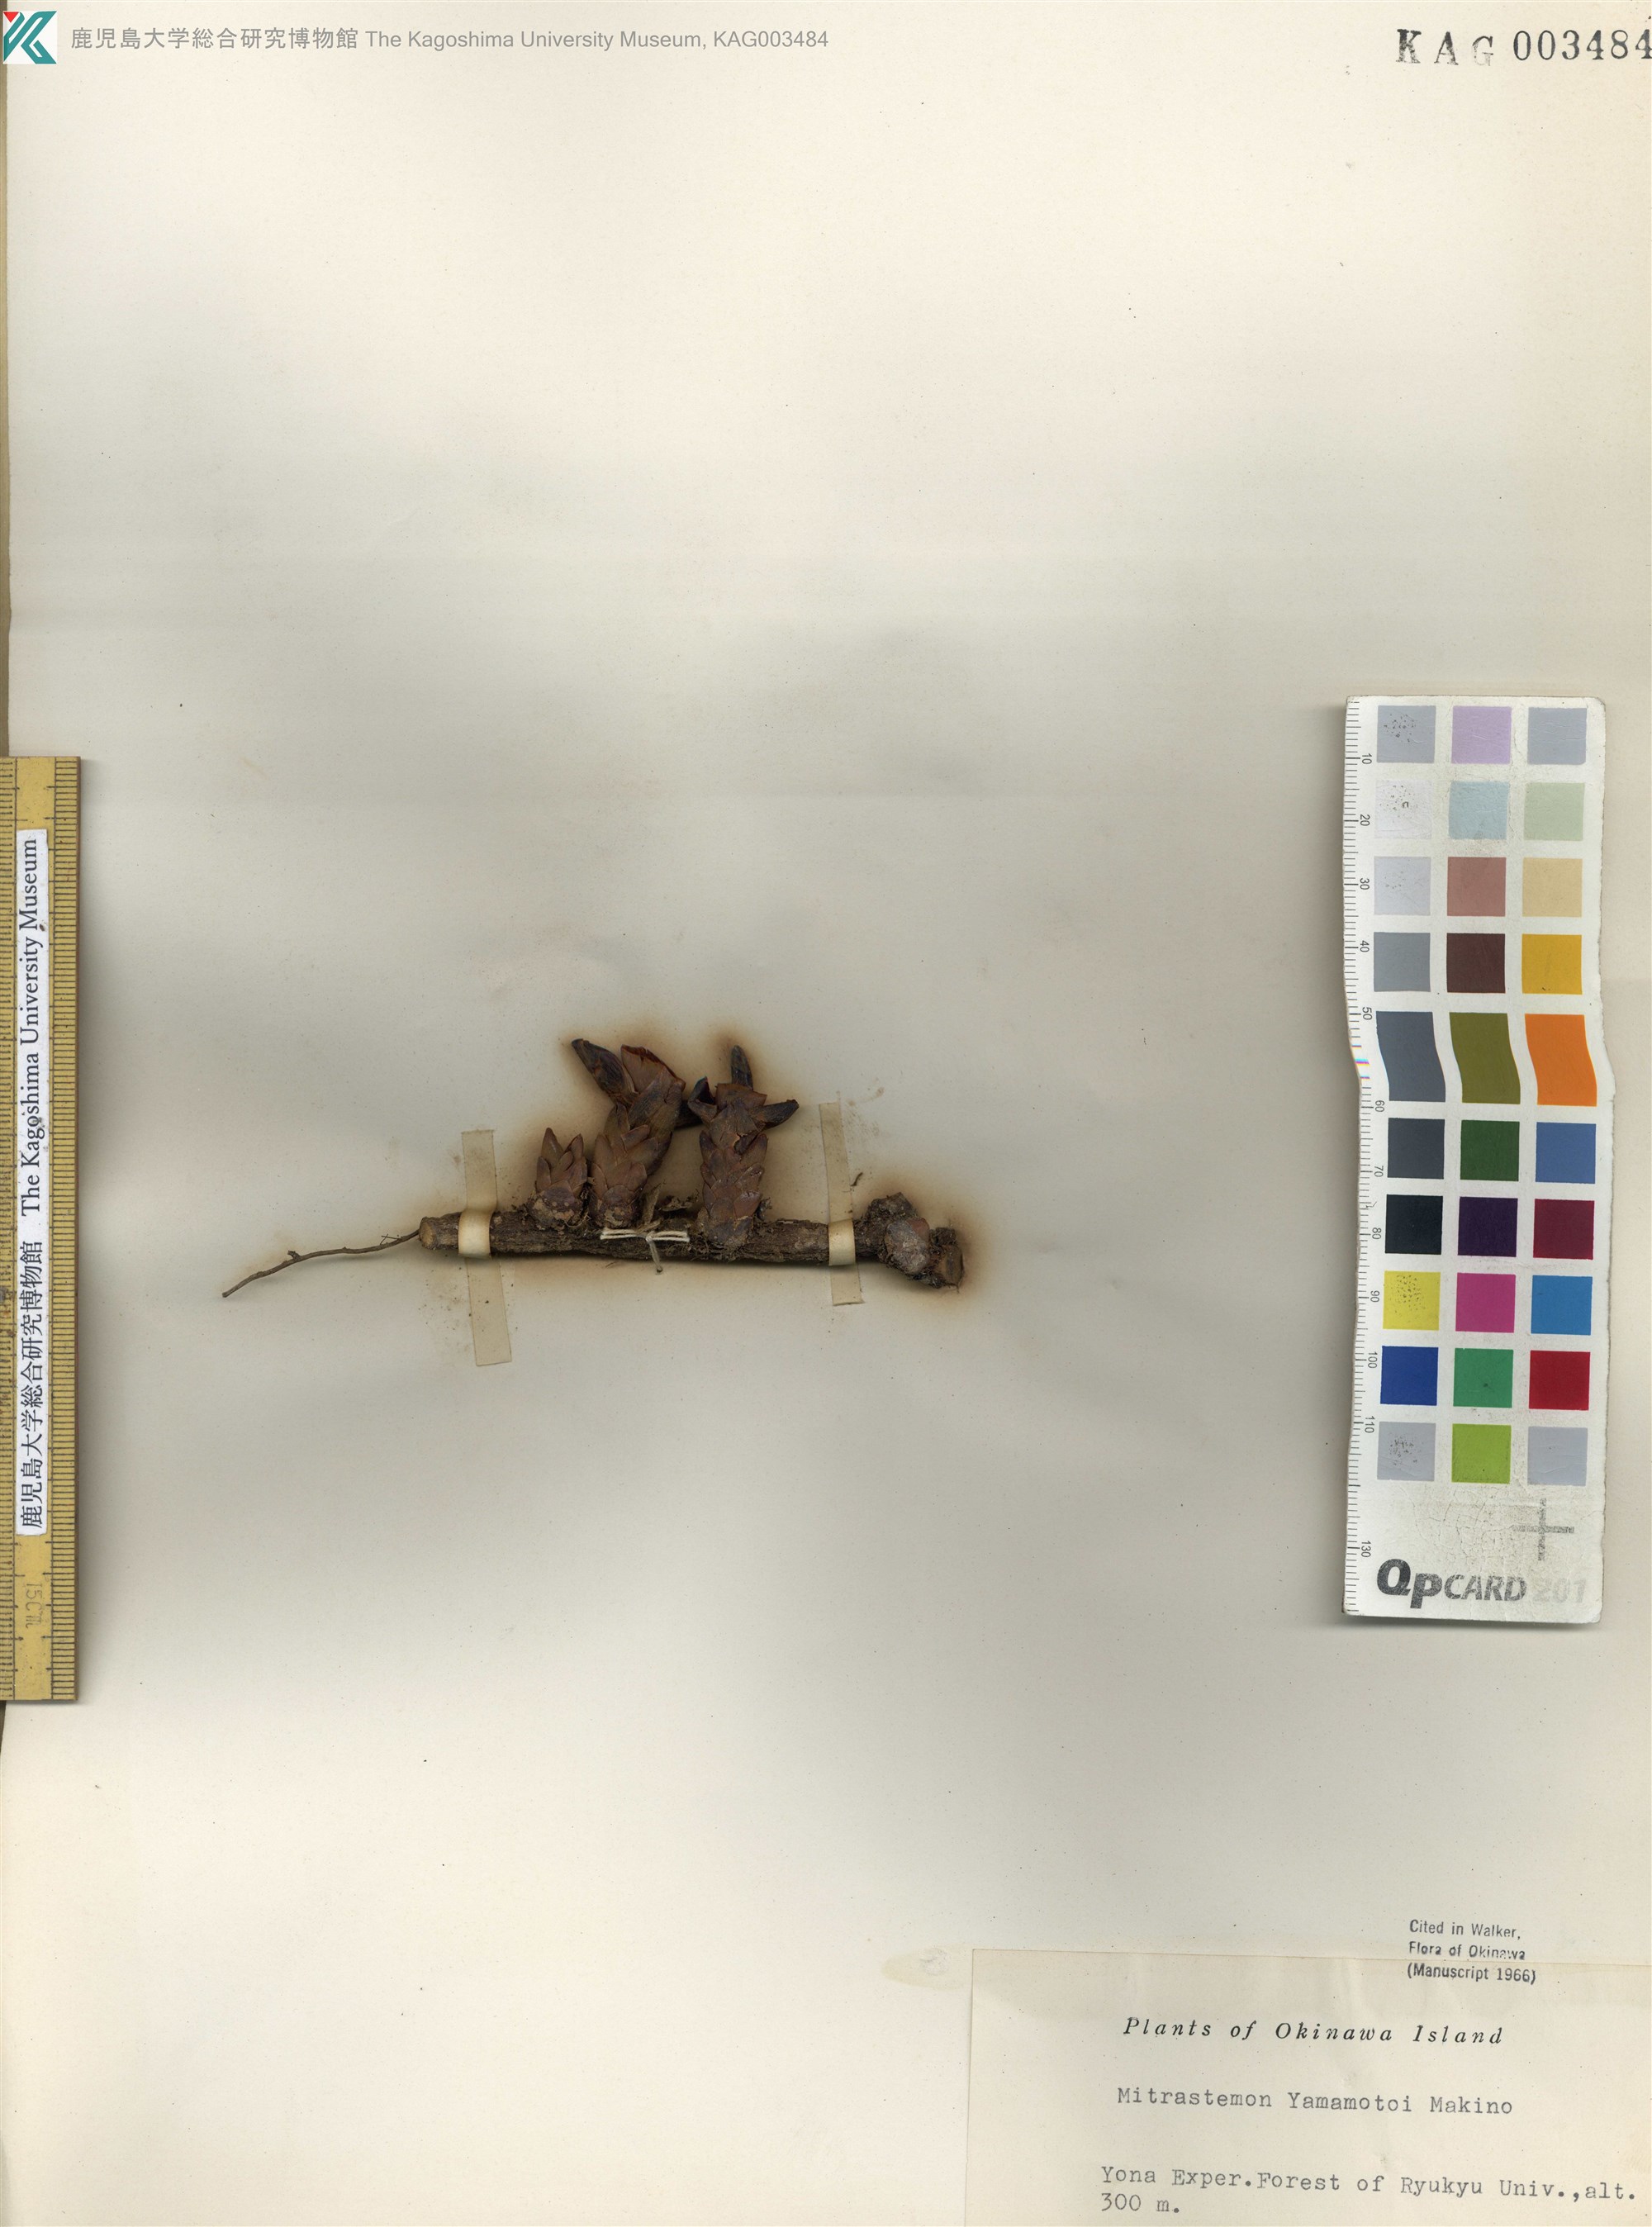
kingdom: Plantae
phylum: Tracheophyta
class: Magnoliopsida
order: Ericales
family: Mitrastemonaceae
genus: Mitrastemon
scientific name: Mitrastemon yamamotoi
